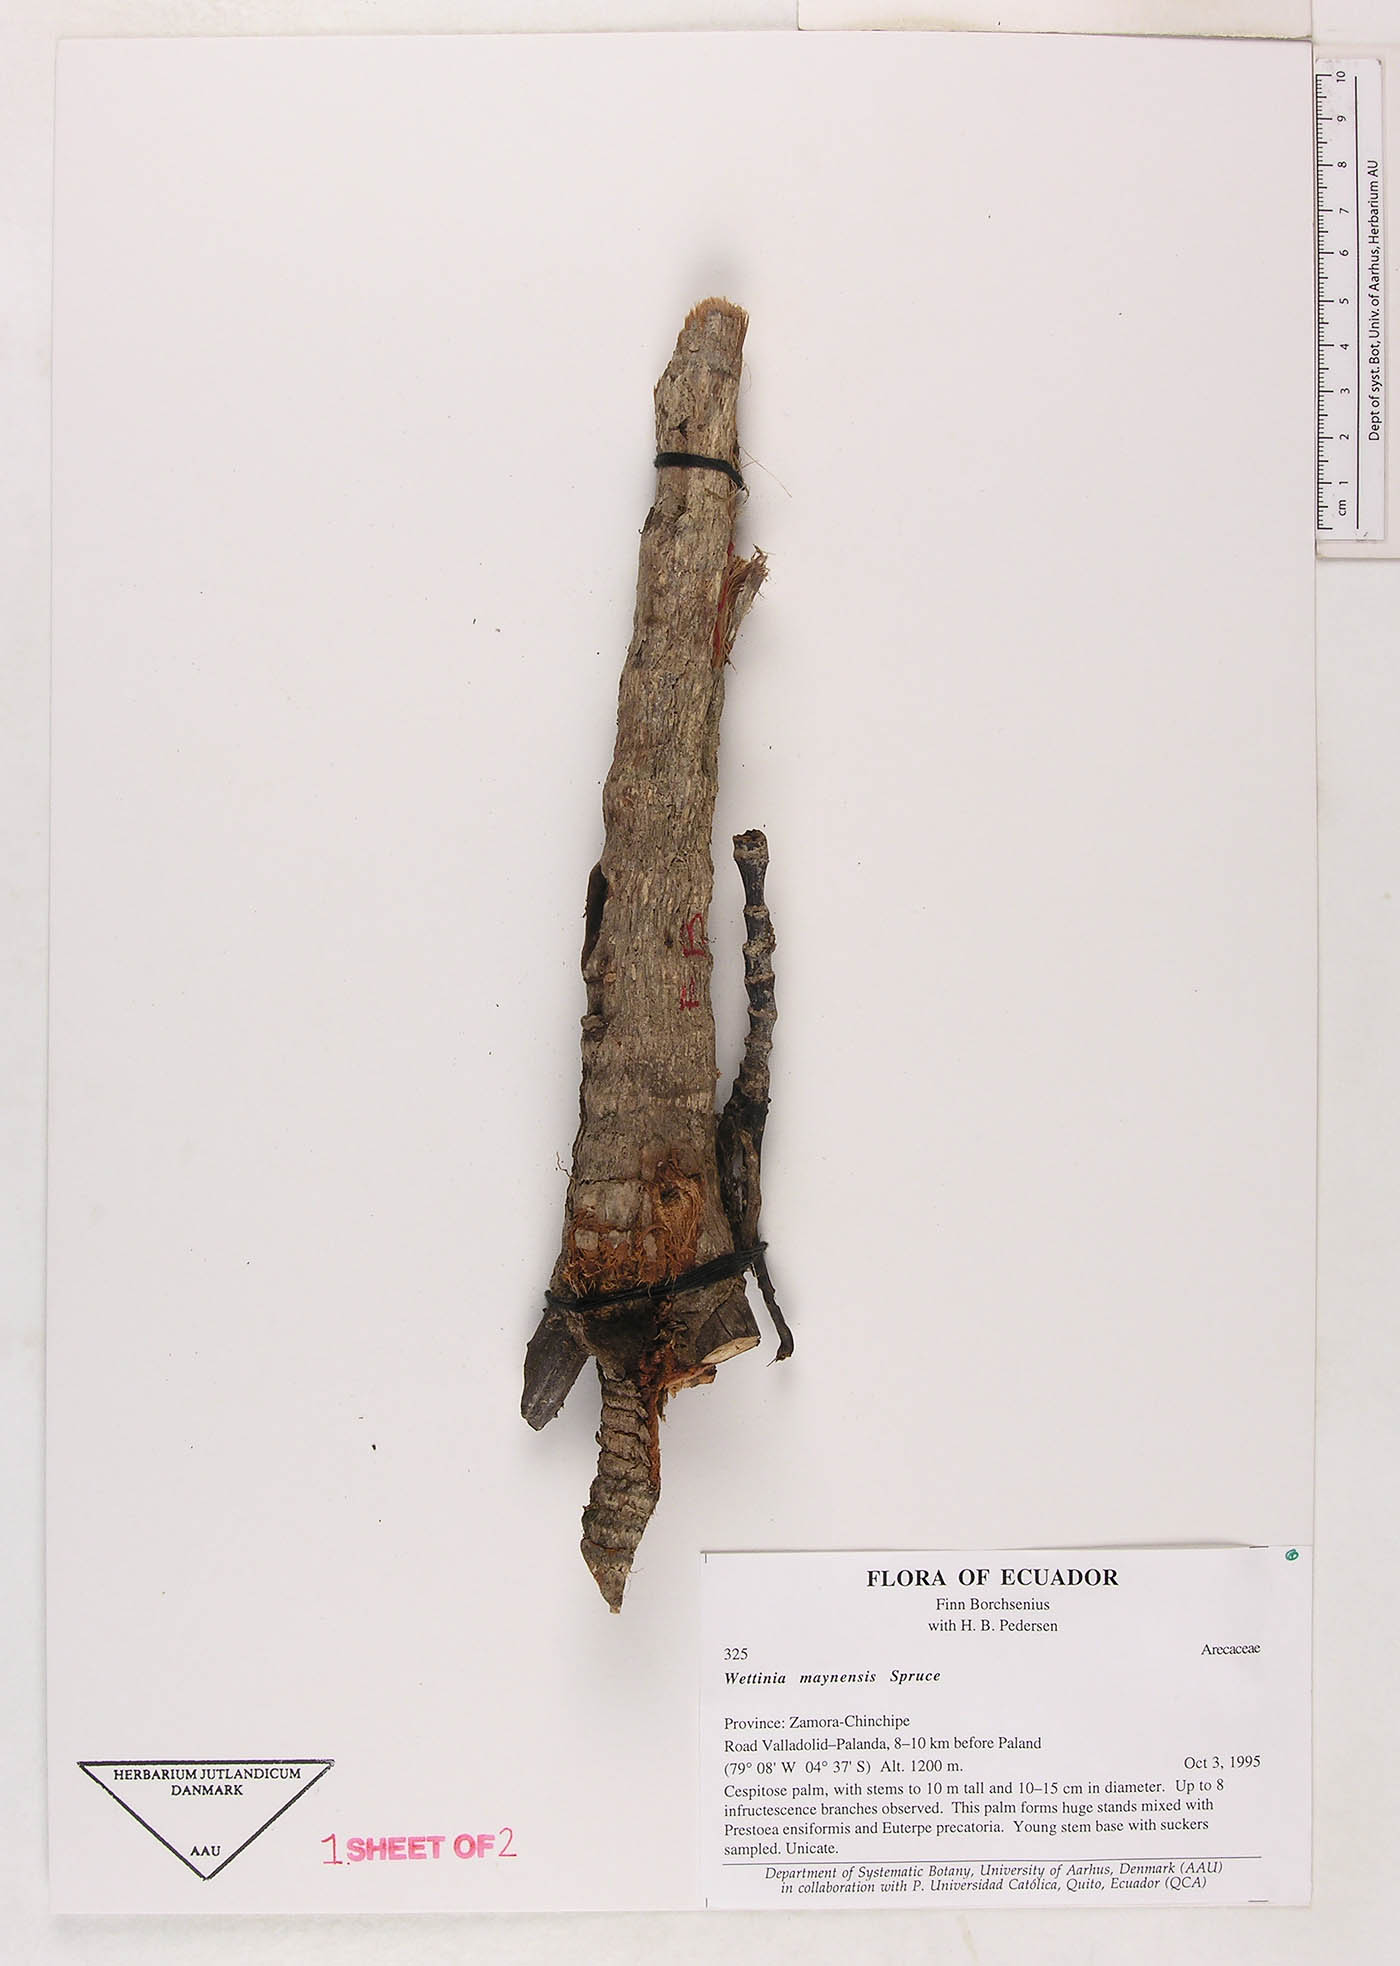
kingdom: Plantae
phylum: Tracheophyta
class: Liliopsida
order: Arecales
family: Arecaceae
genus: Wettinia
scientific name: Wettinia maynensis
